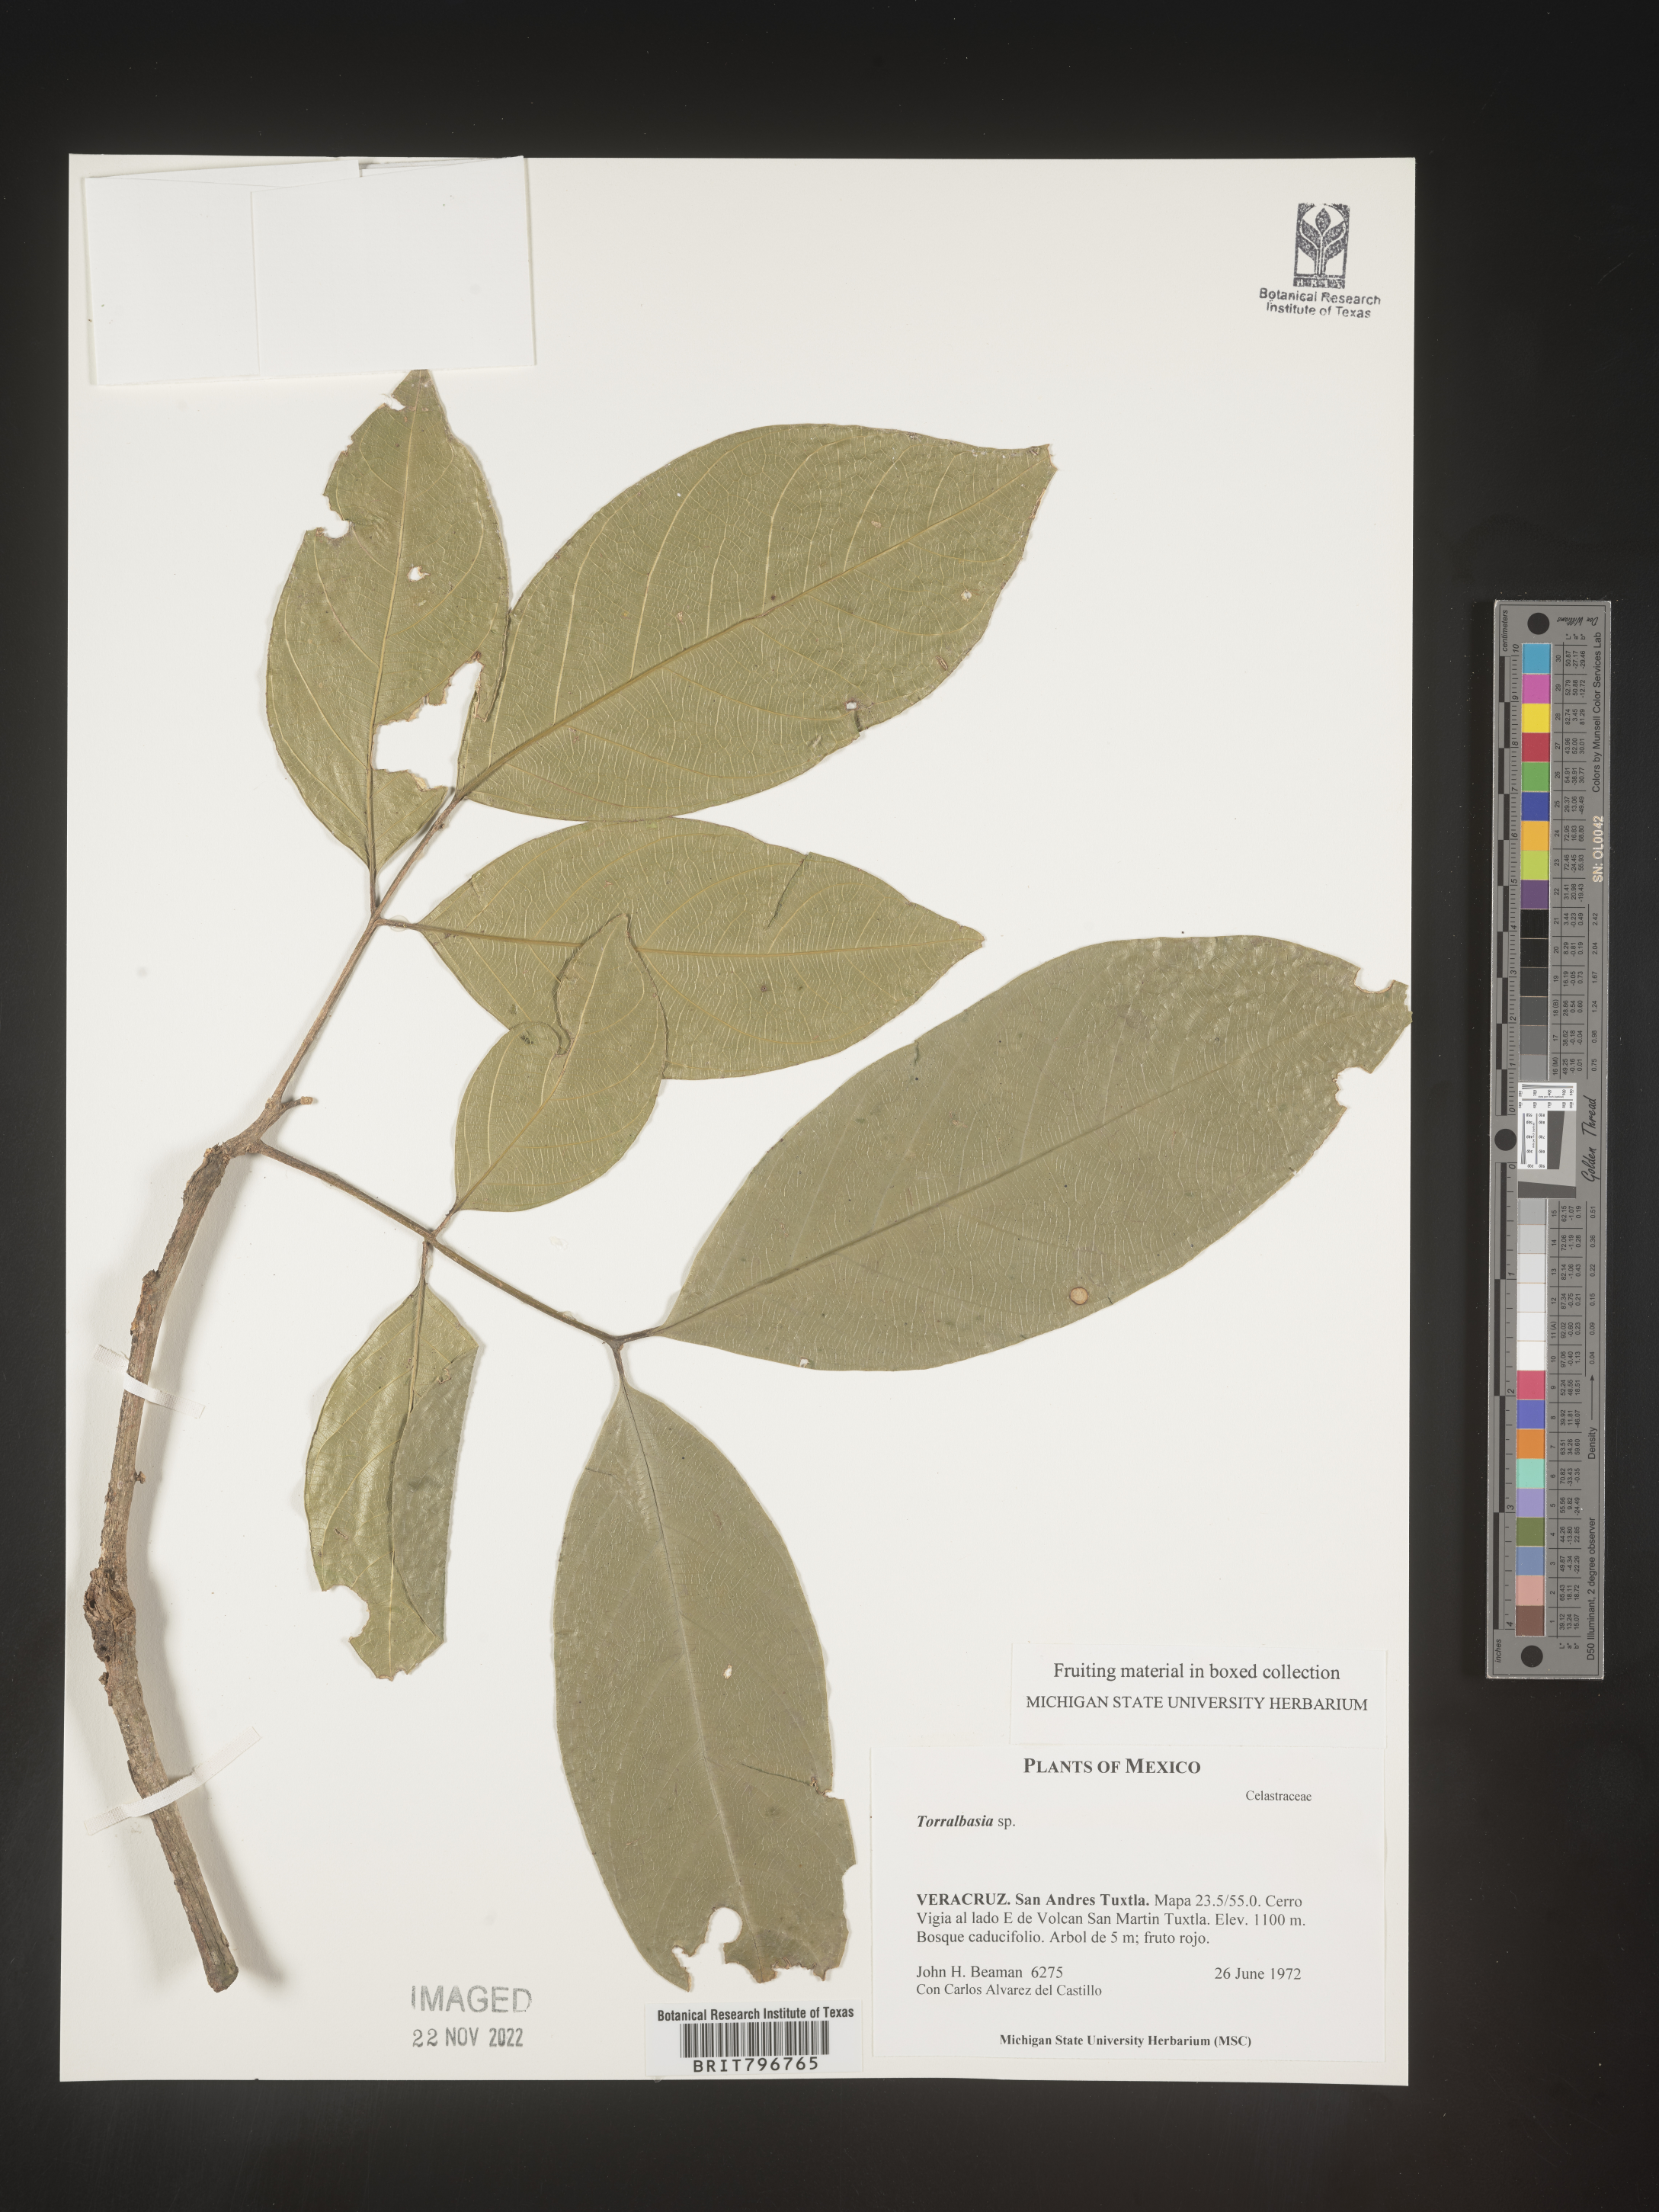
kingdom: Plantae
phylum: Tracheophyta
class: Magnoliopsida
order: Celastrales
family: Celastraceae
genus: Torralbasia
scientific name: Torralbasia
